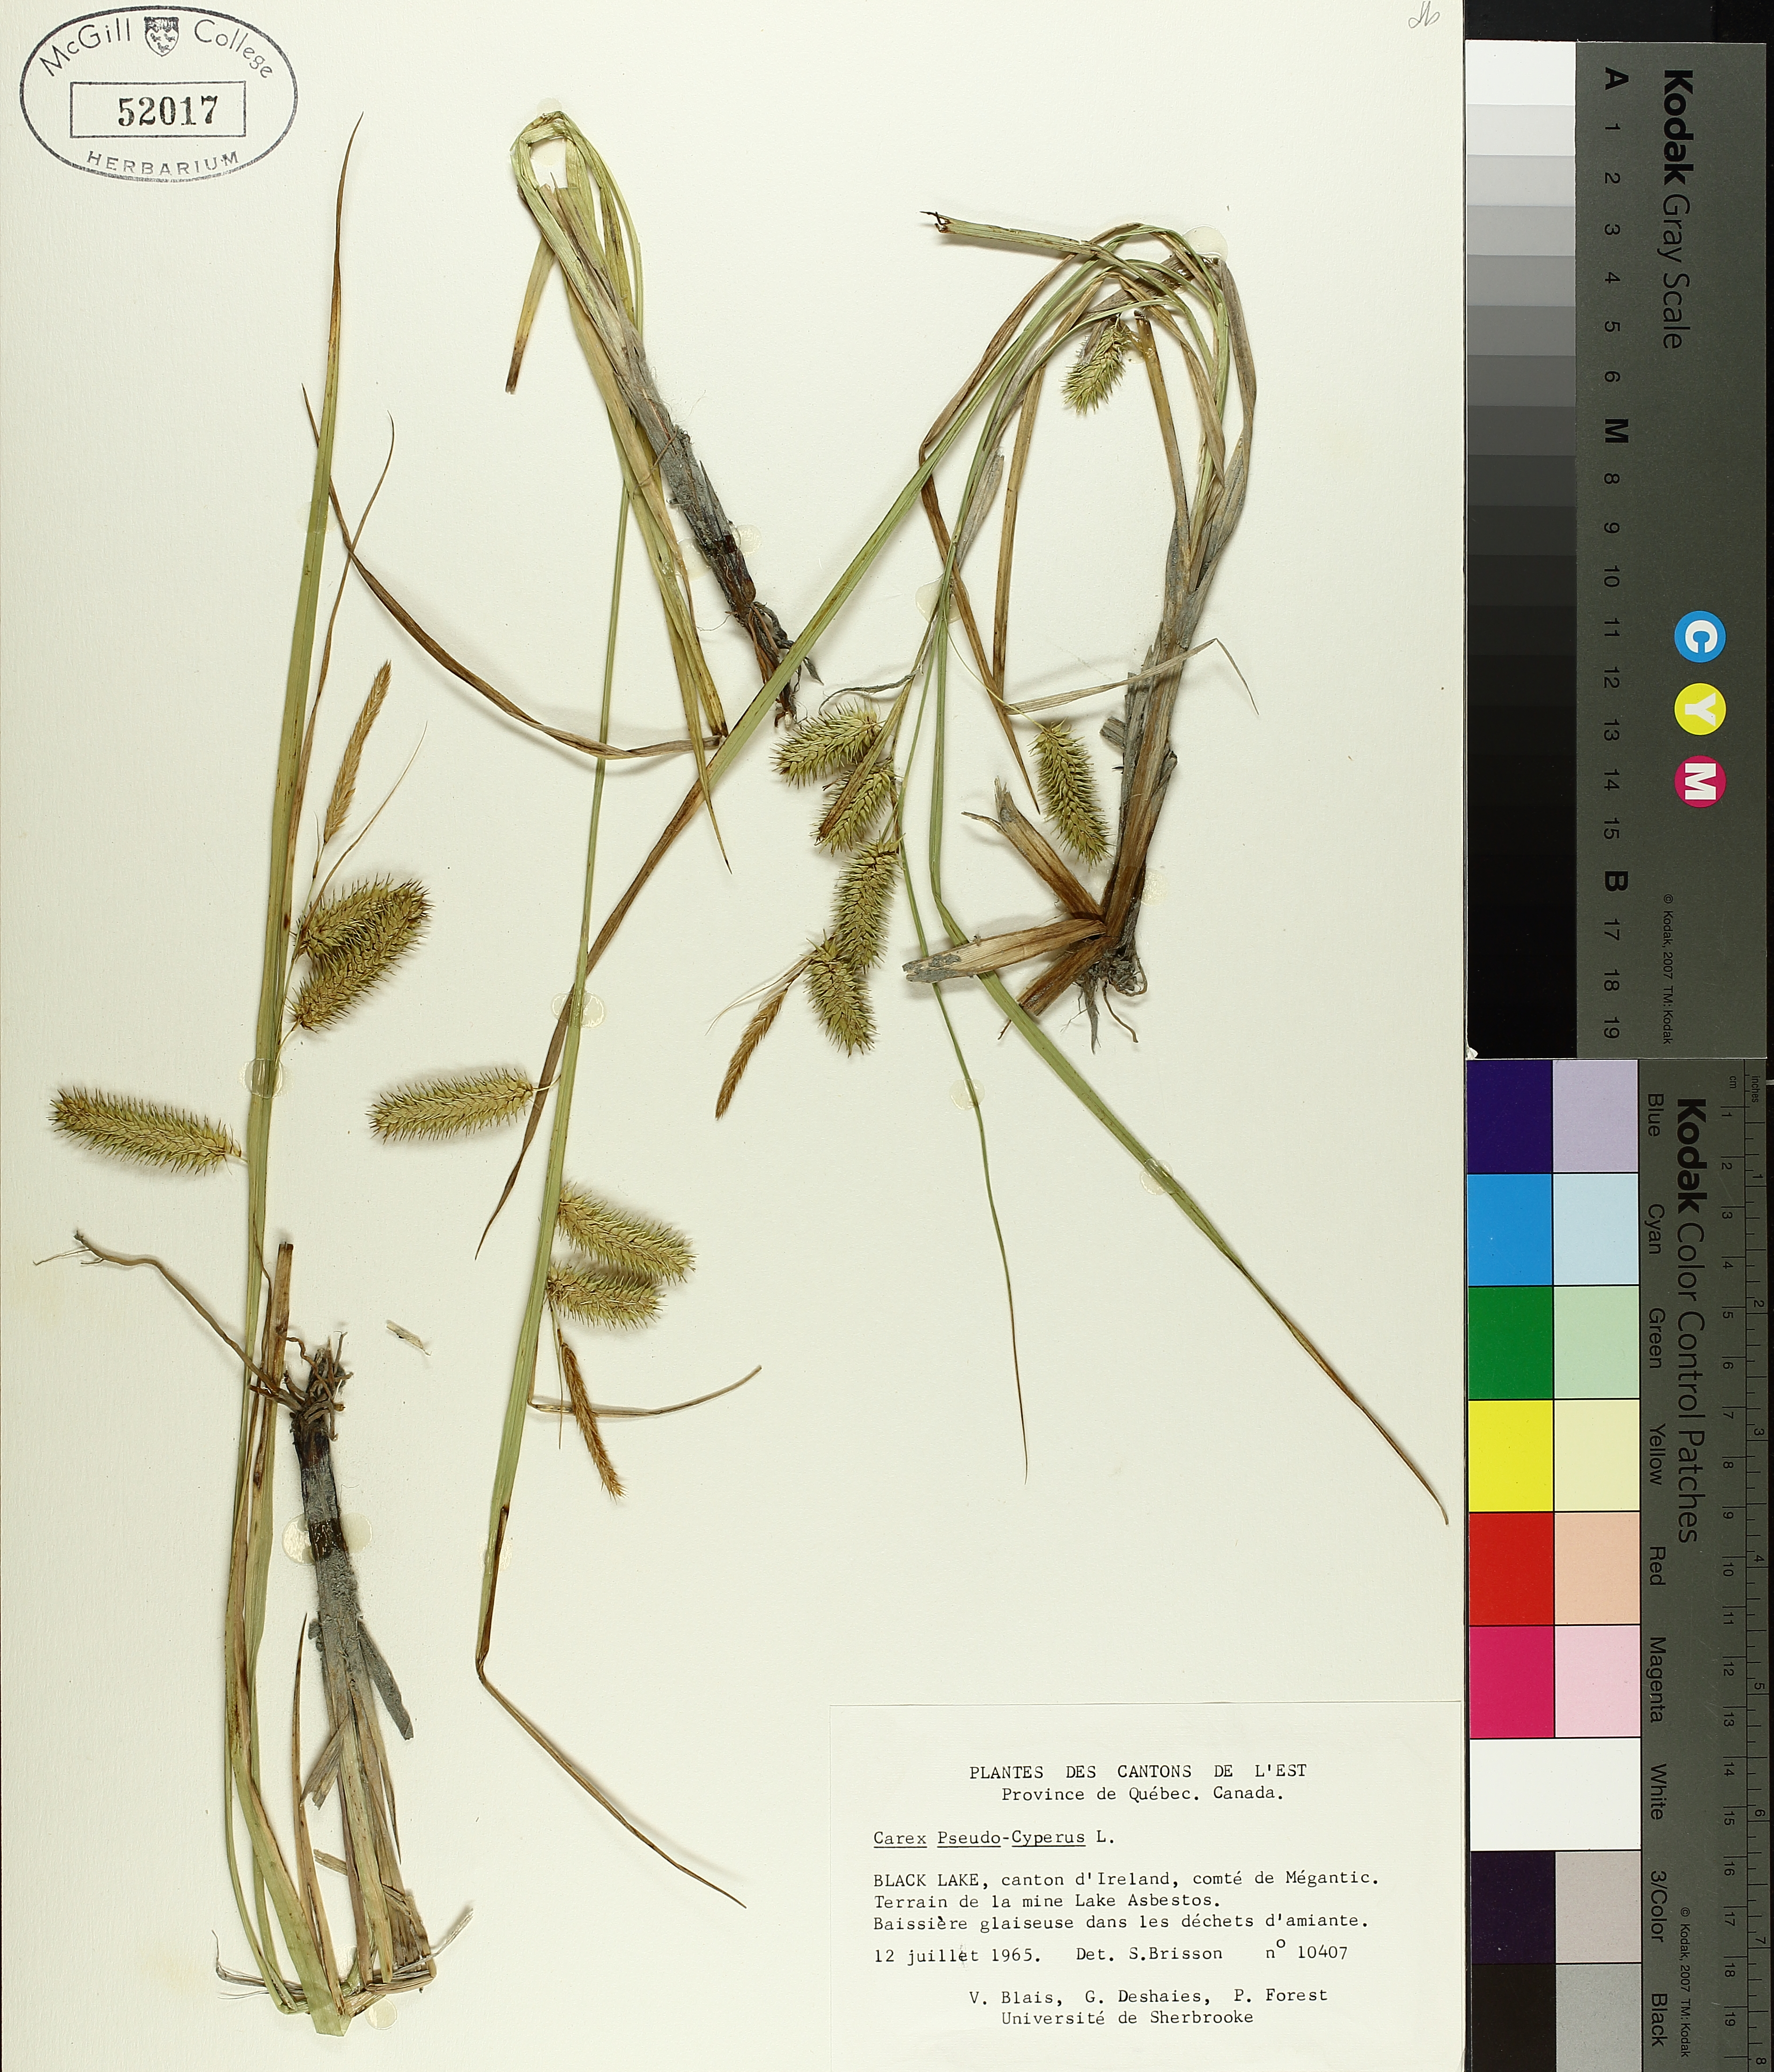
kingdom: Plantae
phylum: Tracheophyta
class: Liliopsida
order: Poales
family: Cyperaceae
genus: Carex
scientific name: Carex pseudocyperus
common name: Cyperus sedge
